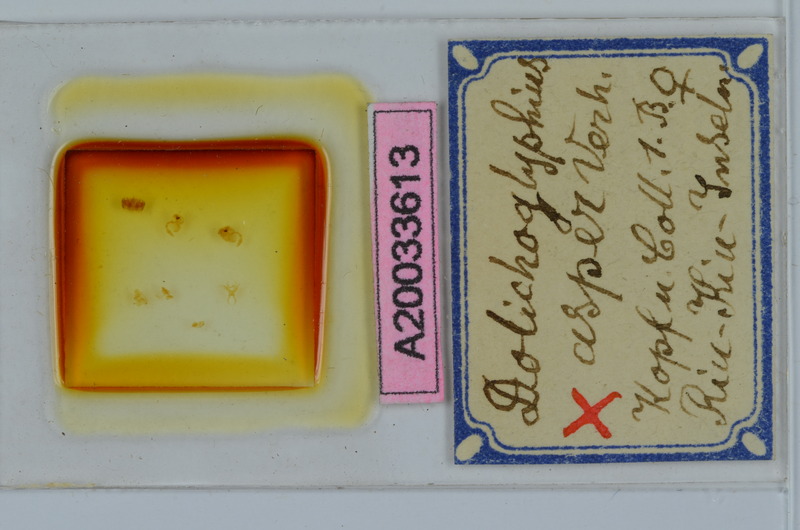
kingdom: Animalia
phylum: Arthropoda
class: Diplopoda
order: Spirostreptida
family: Cambalopsidae
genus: Dolichoglyphius
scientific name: Dolichoglyphius asper
